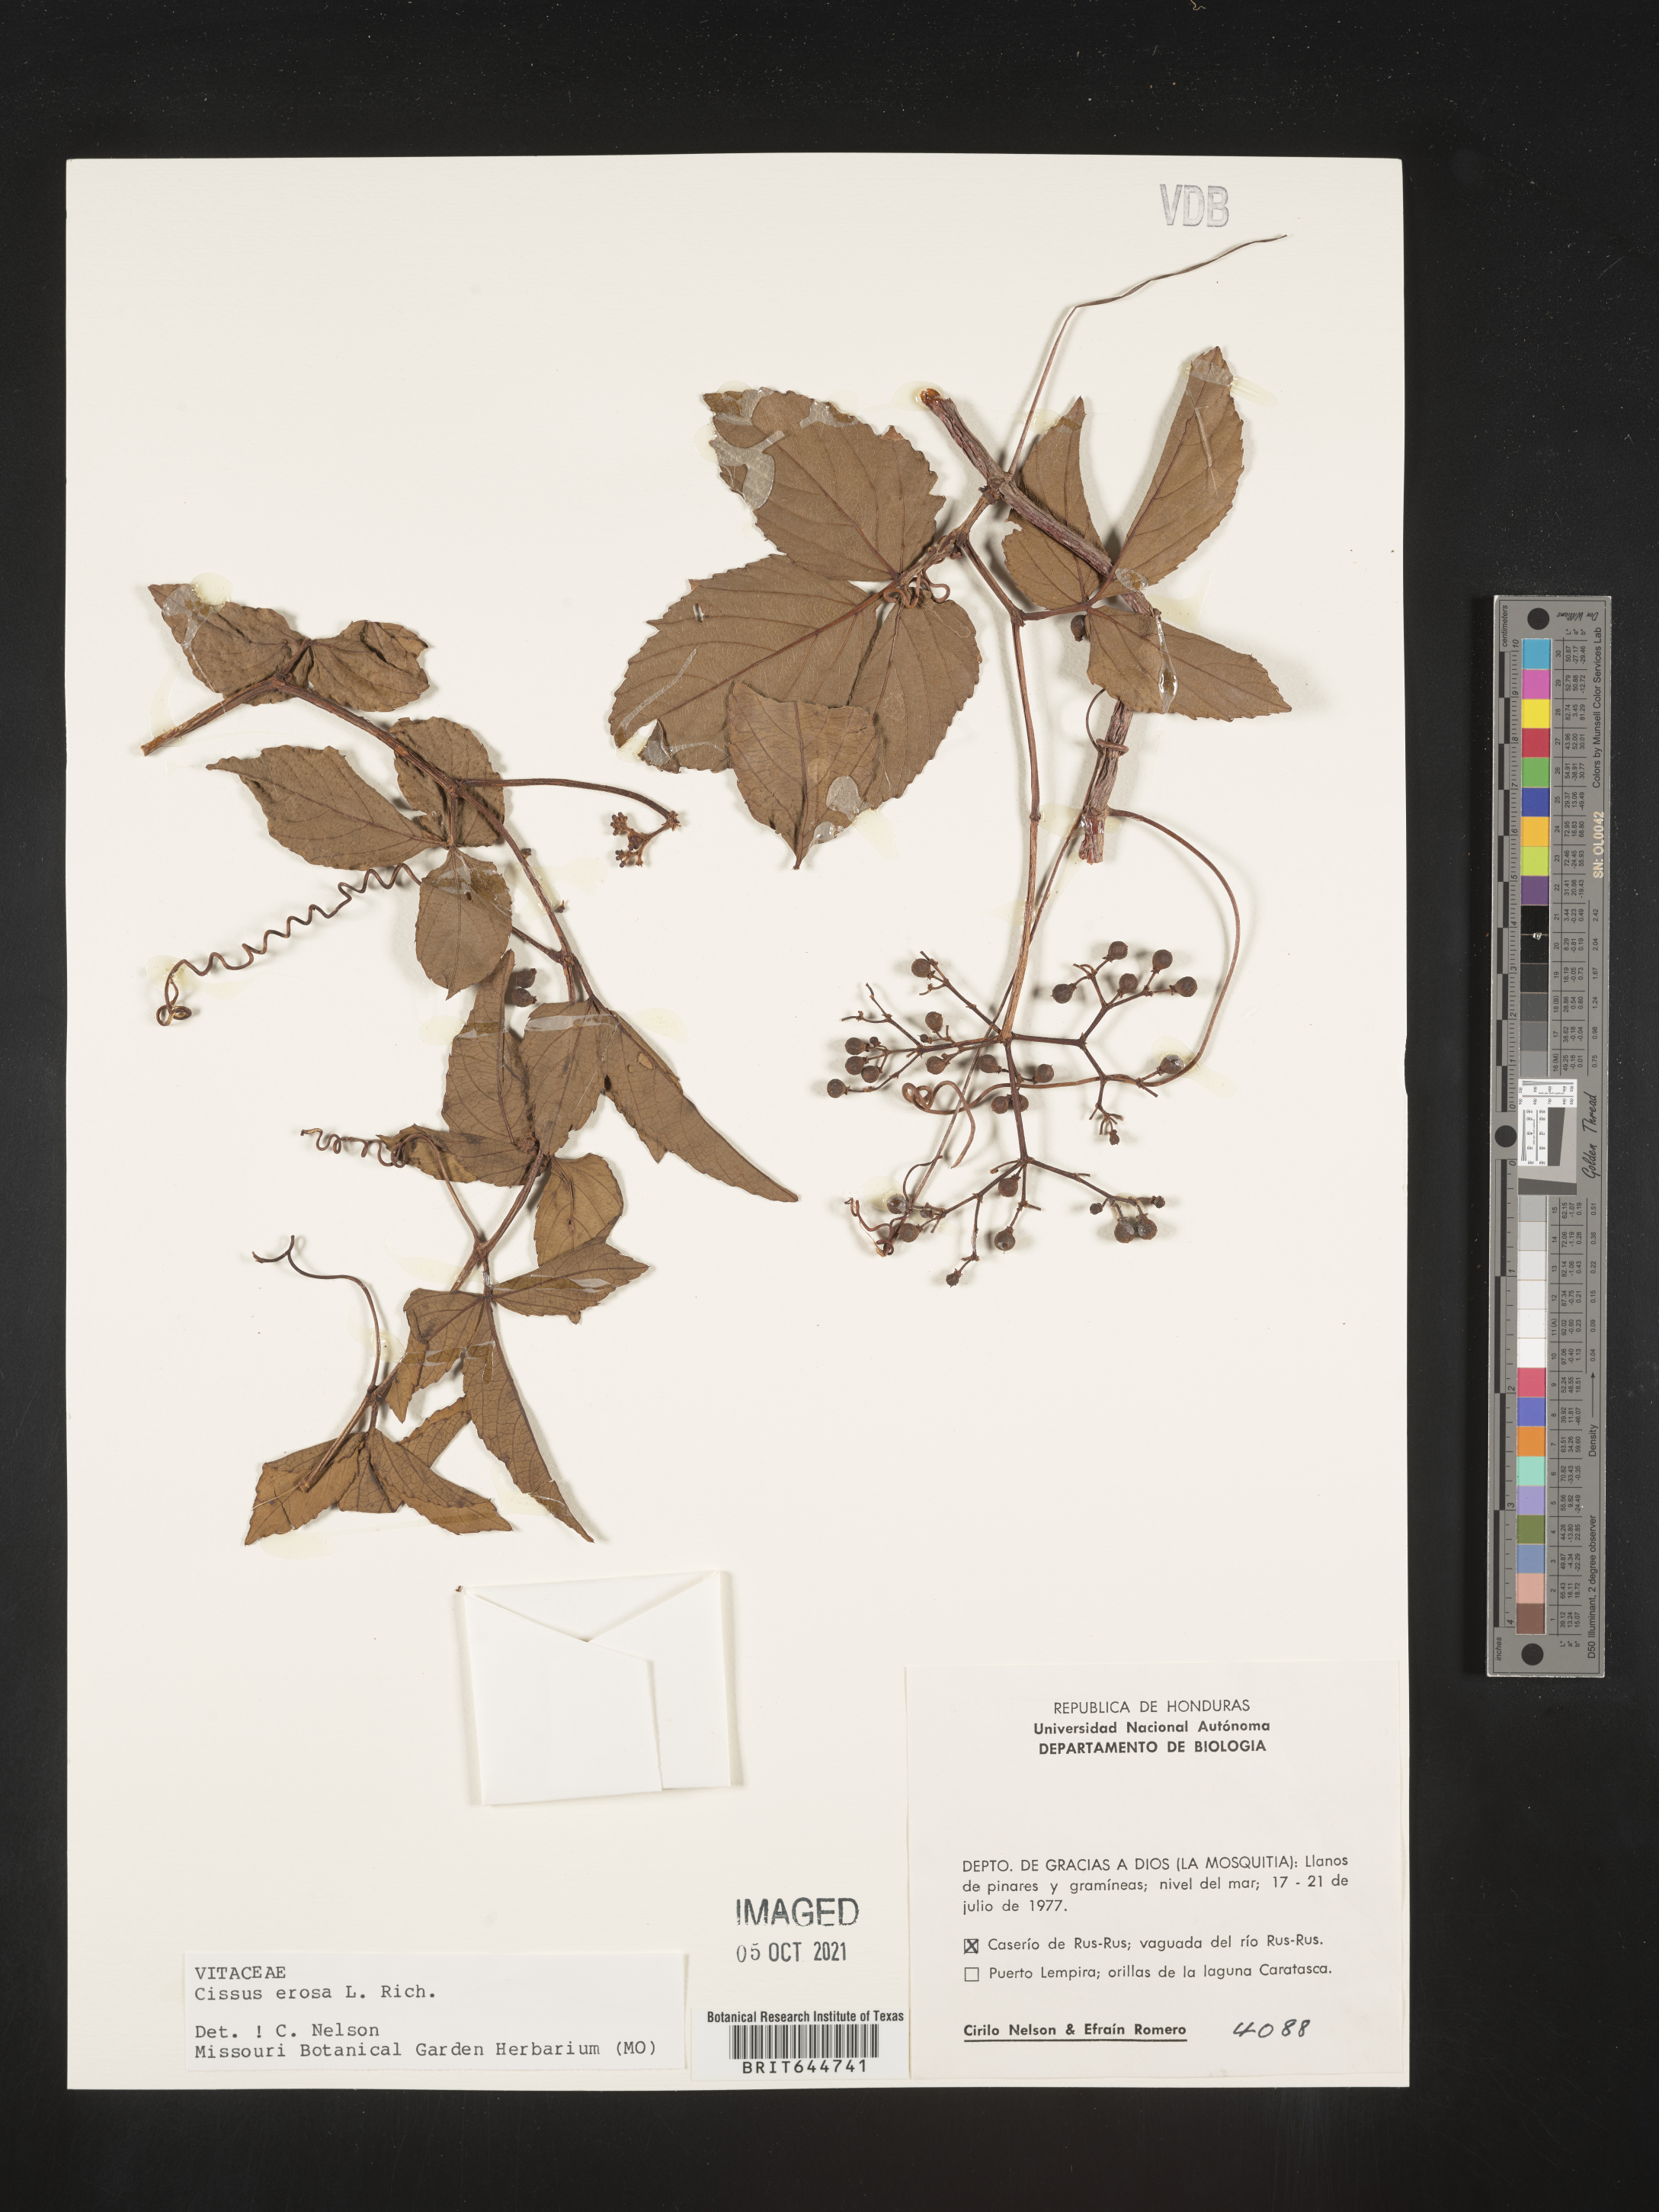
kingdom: Plantae
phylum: Tracheophyta
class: Magnoliopsida
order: Vitales
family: Vitaceae
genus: Cissus
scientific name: Cissus
